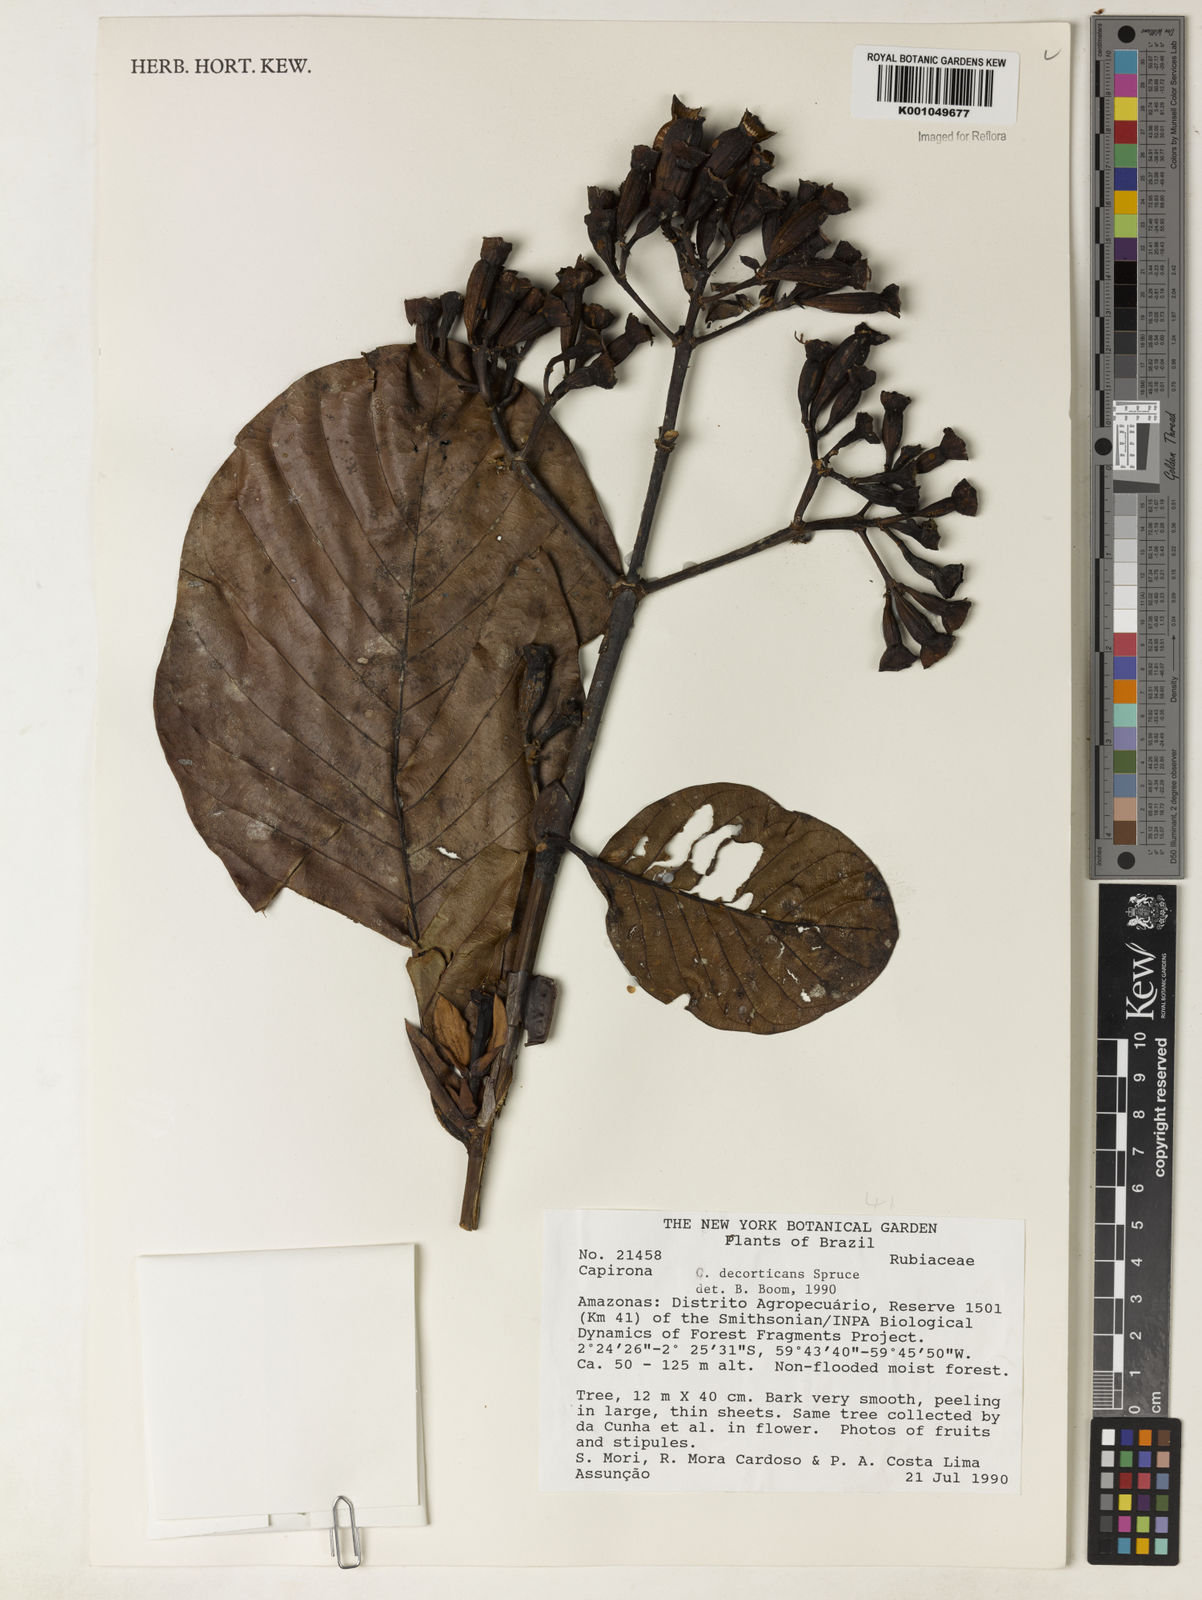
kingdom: Plantae
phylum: Tracheophyta
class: Magnoliopsida
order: Gentianales
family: Rubiaceae
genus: Capirona
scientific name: Capirona macrophylla
